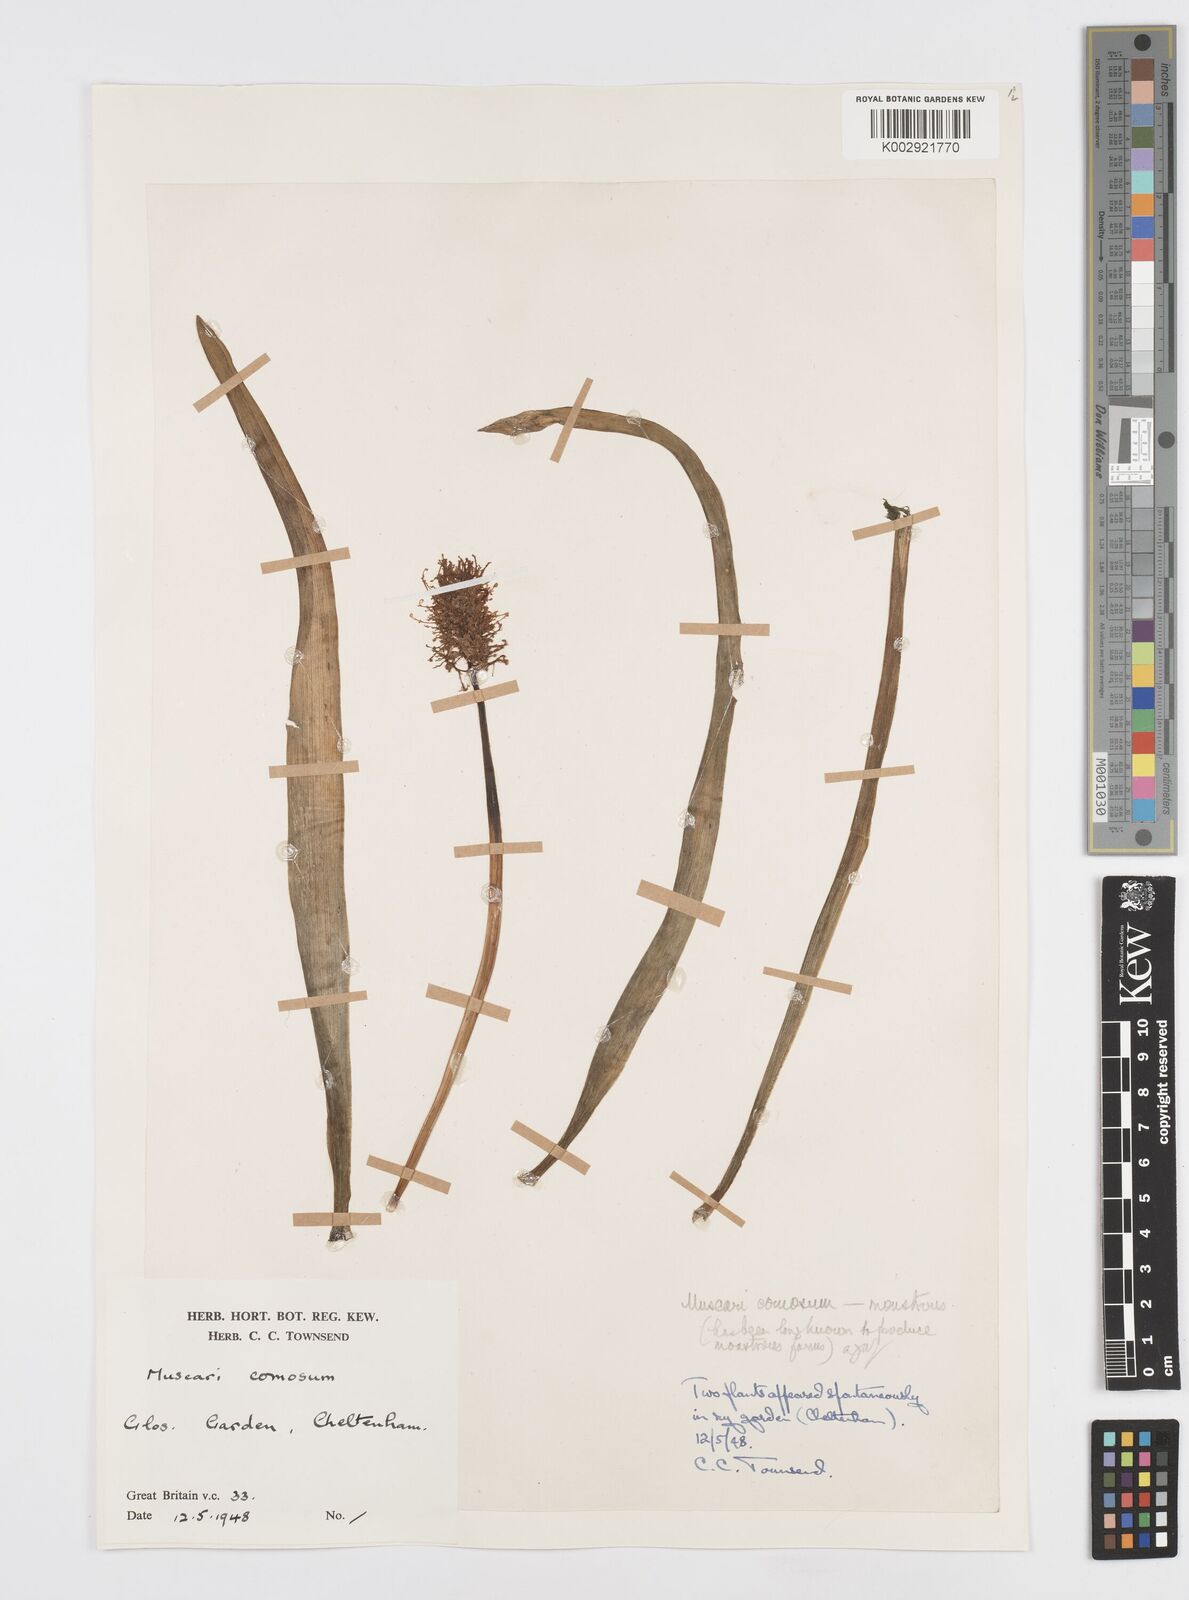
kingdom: Plantae
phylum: Tracheophyta
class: Liliopsida
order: Asparagales
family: Asparagaceae
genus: Muscari
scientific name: Muscari comosum
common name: Tassel hyacinth
